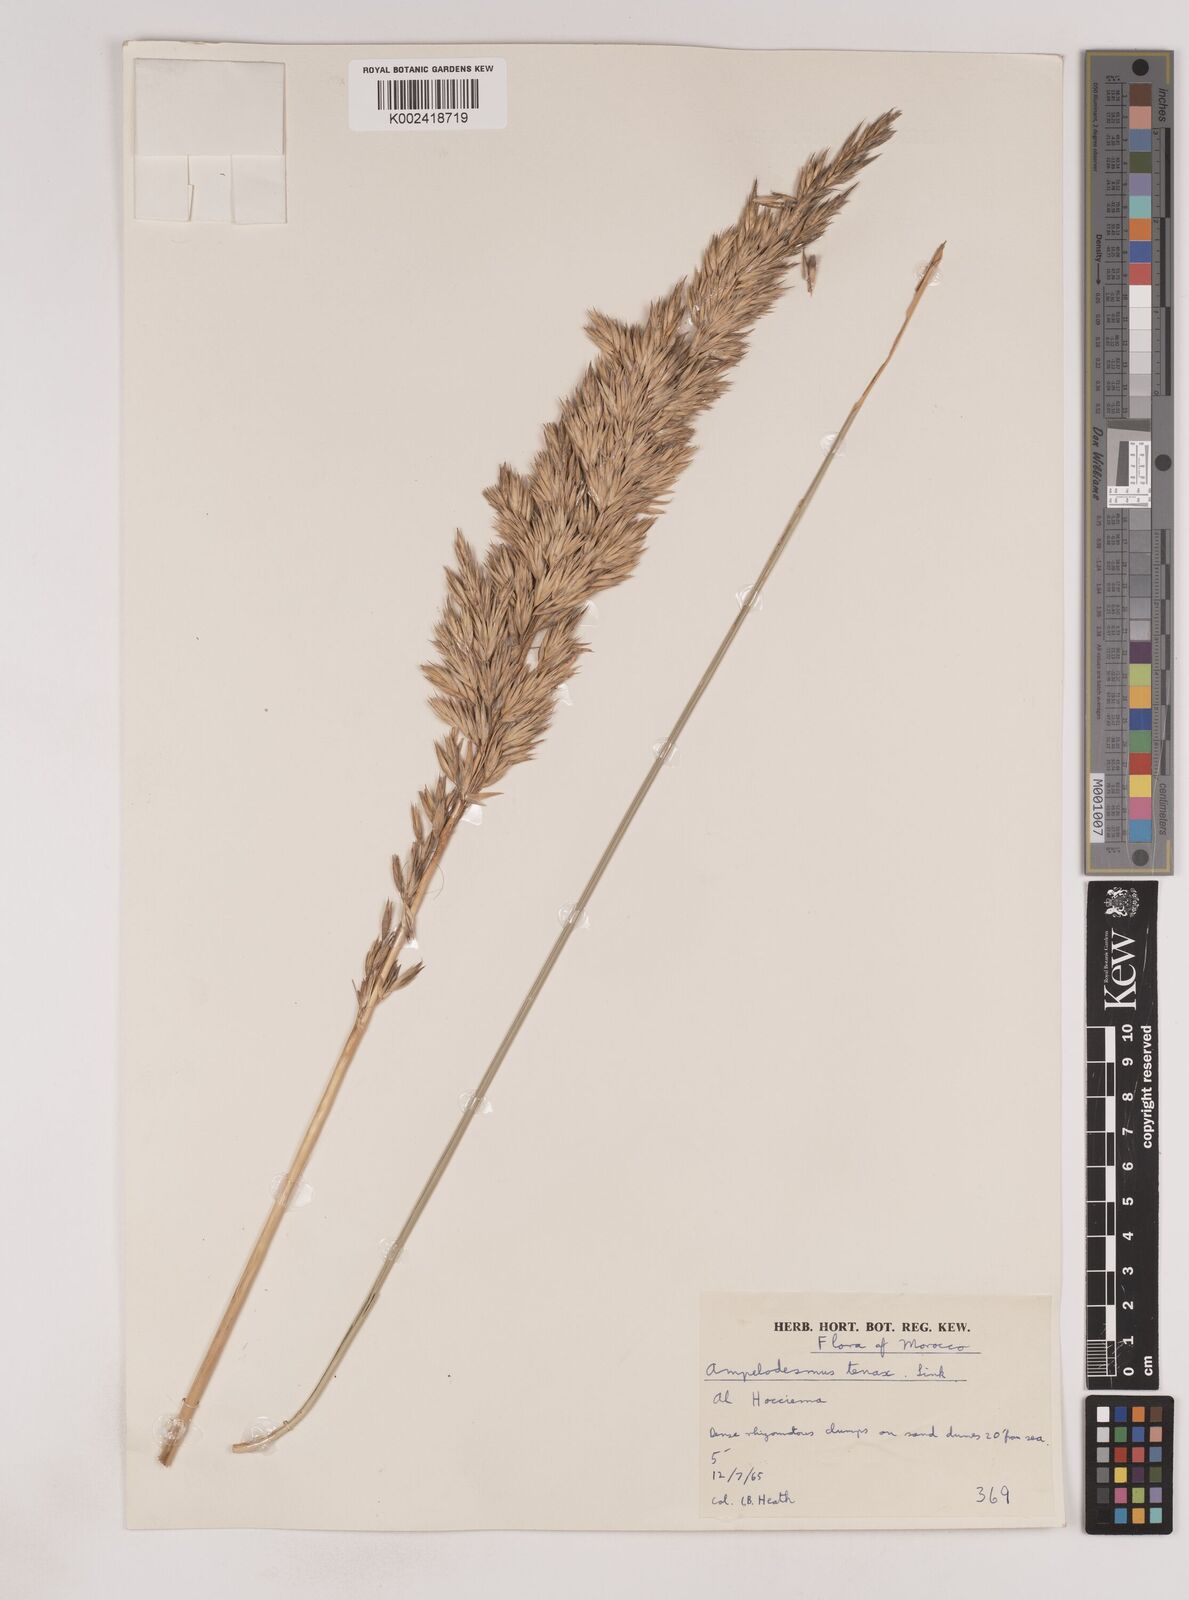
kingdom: Plantae
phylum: Tracheophyta
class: Liliopsida
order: Poales
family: Poaceae
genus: Ampelodesmos
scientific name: Ampelodesmos mauritanicus
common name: Mauritanian grass
